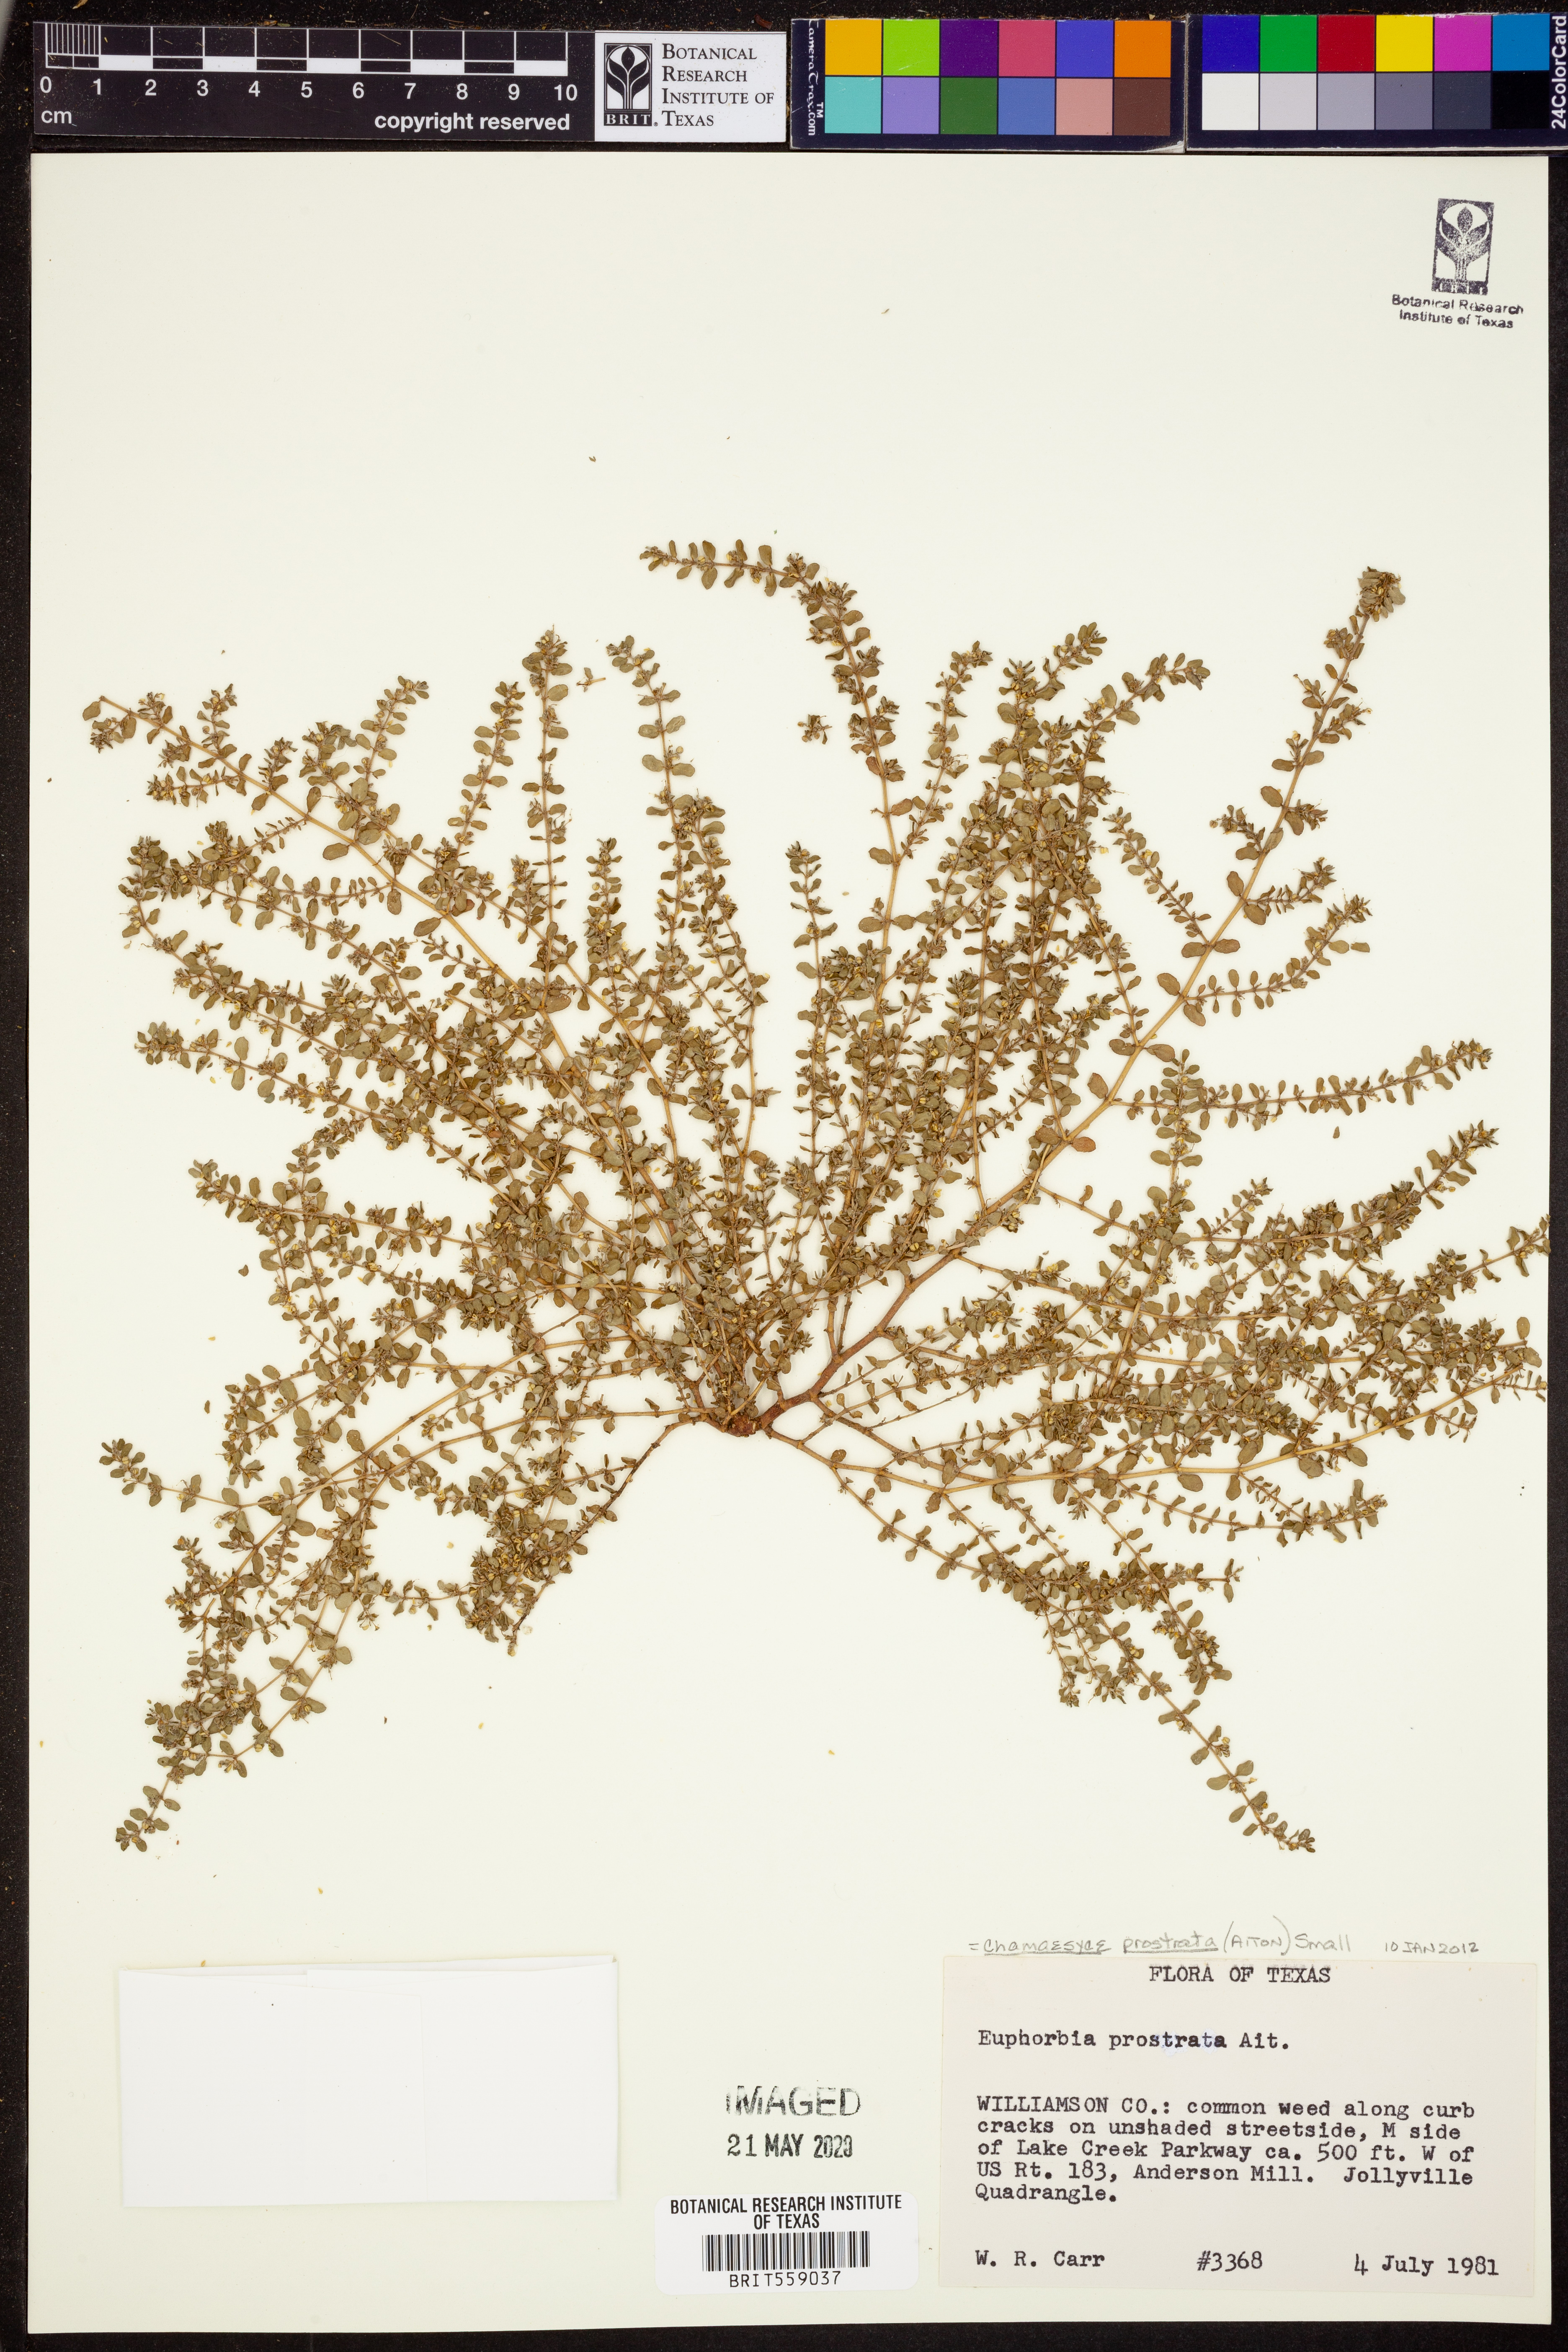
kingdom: Plantae
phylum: Tracheophyta
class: Magnoliopsida
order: Malpighiales
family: Euphorbiaceae
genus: Euphorbia
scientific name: Euphorbia prostrata
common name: Prostrate sandmat
